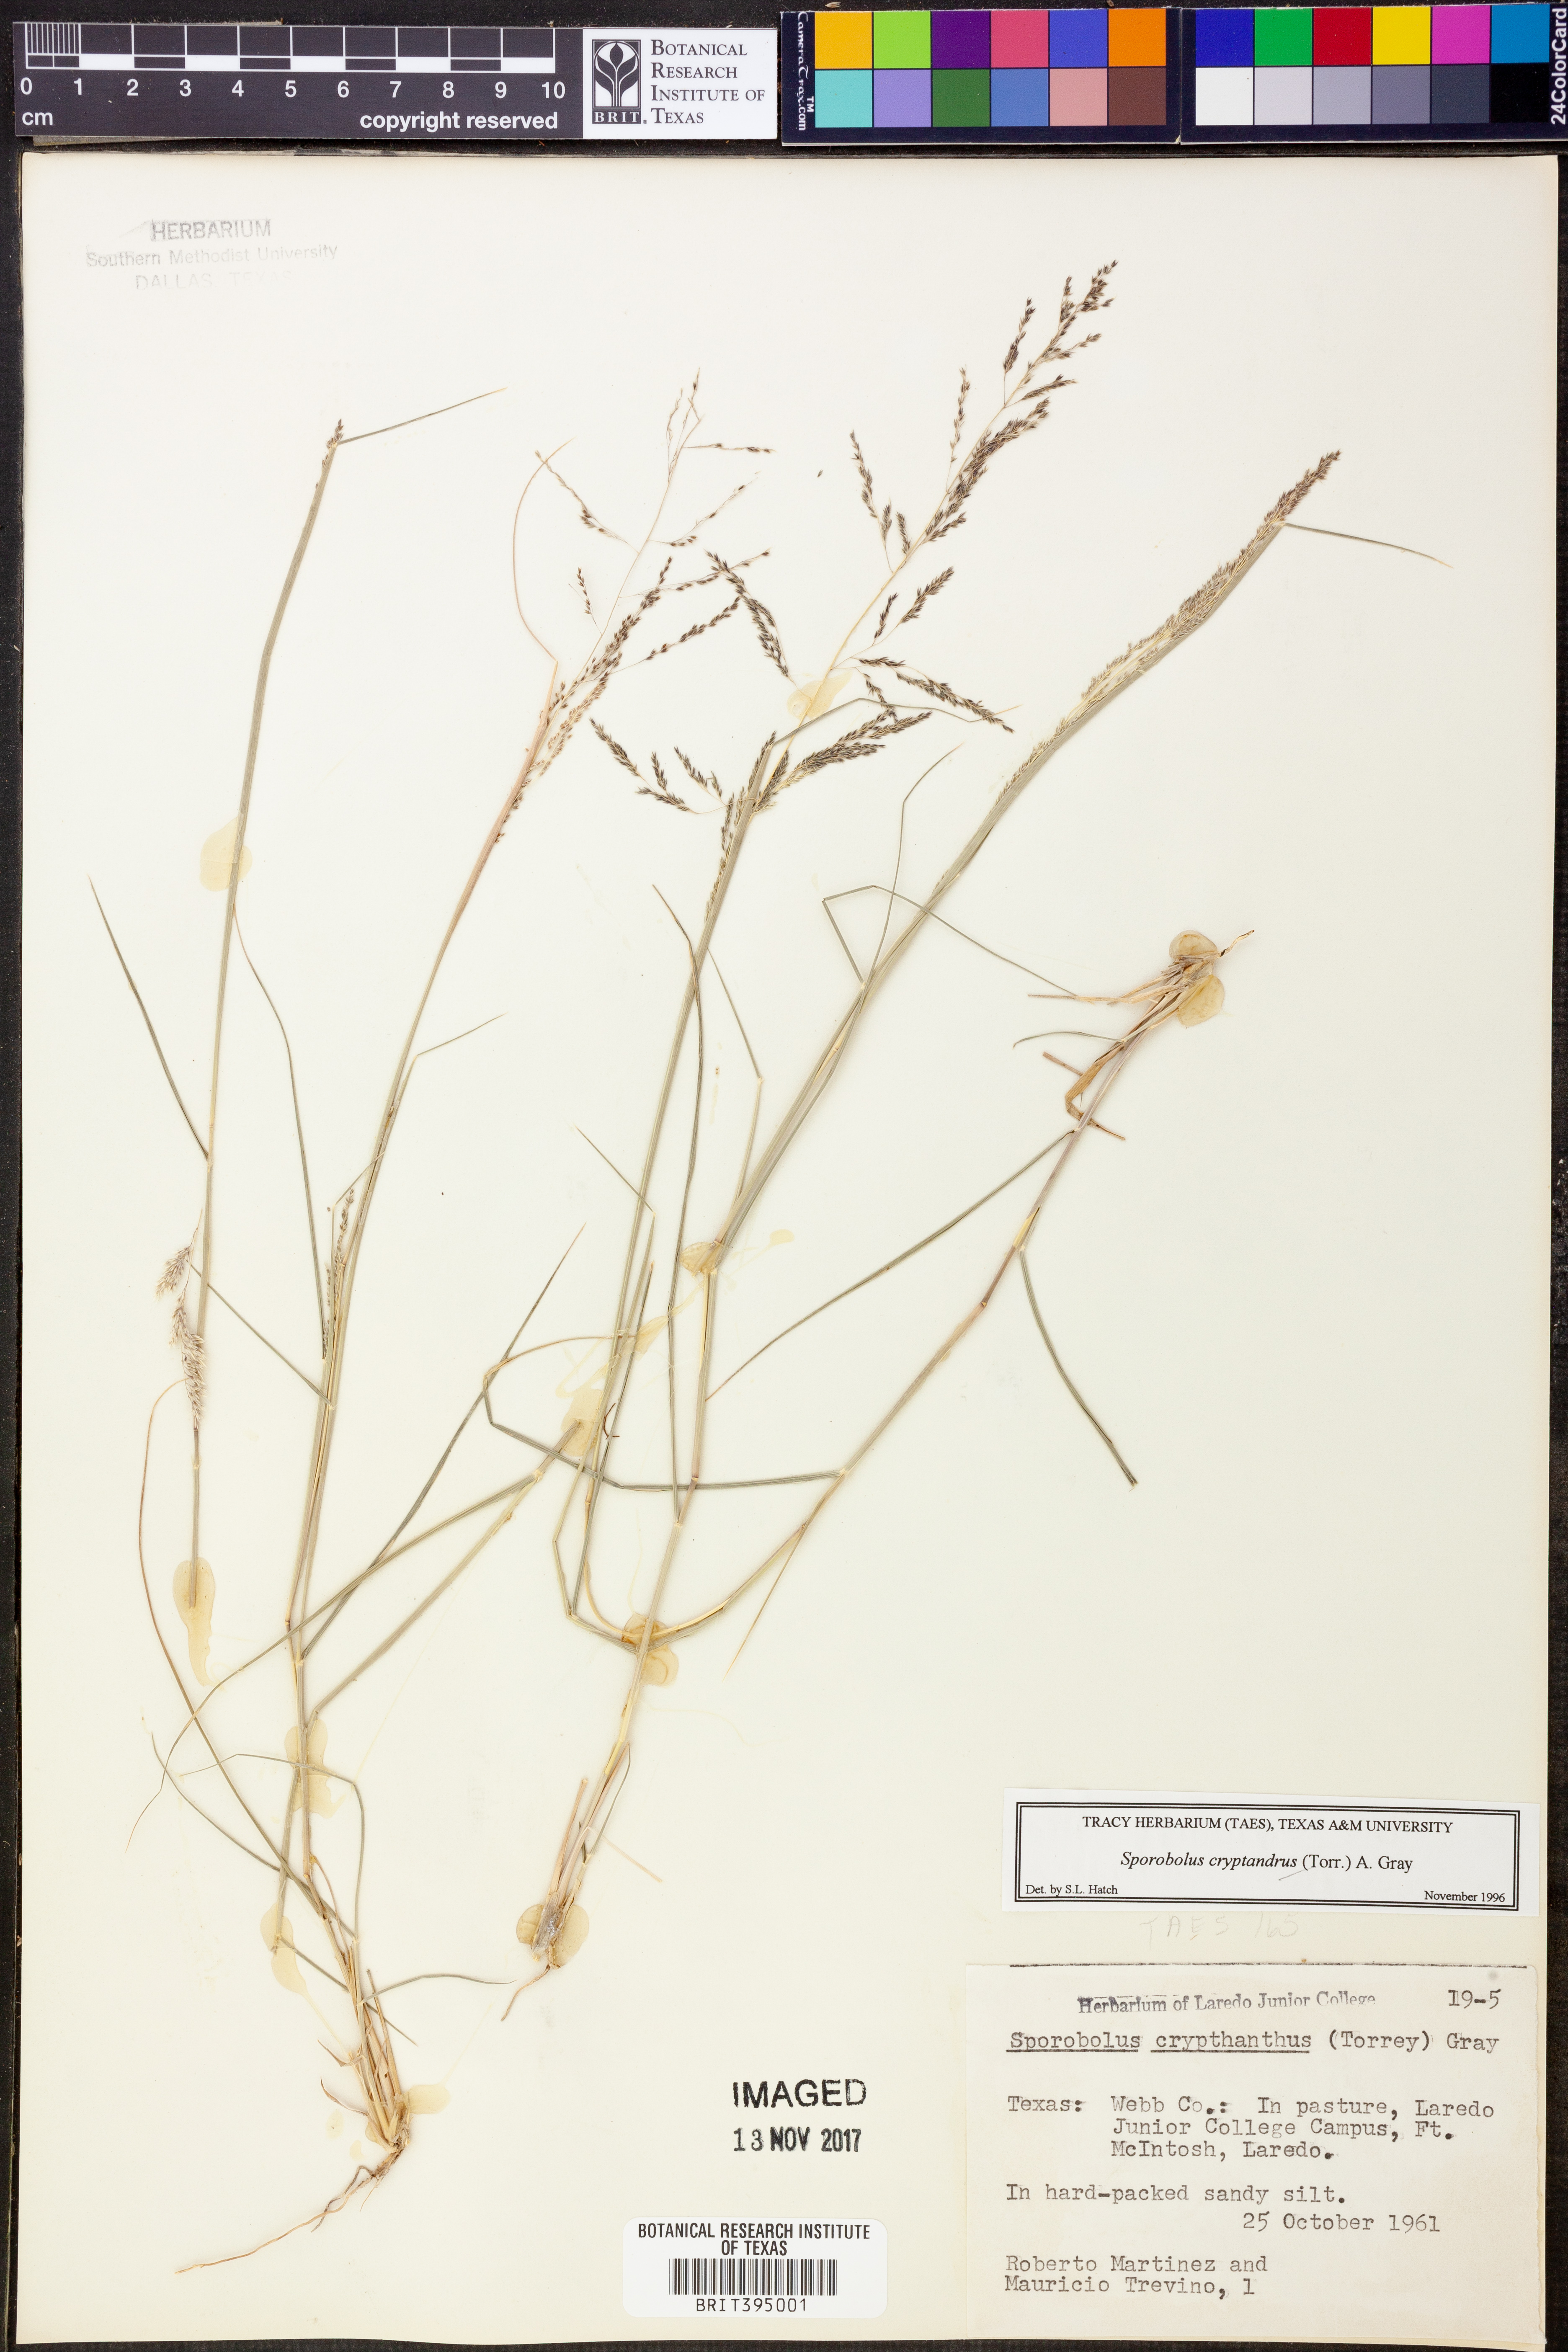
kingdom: Plantae
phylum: Tracheophyta
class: Liliopsida
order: Poales
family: Poaceae
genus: Sporobolus
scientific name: Sporobolus cryptandrus
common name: Sand dropseed
